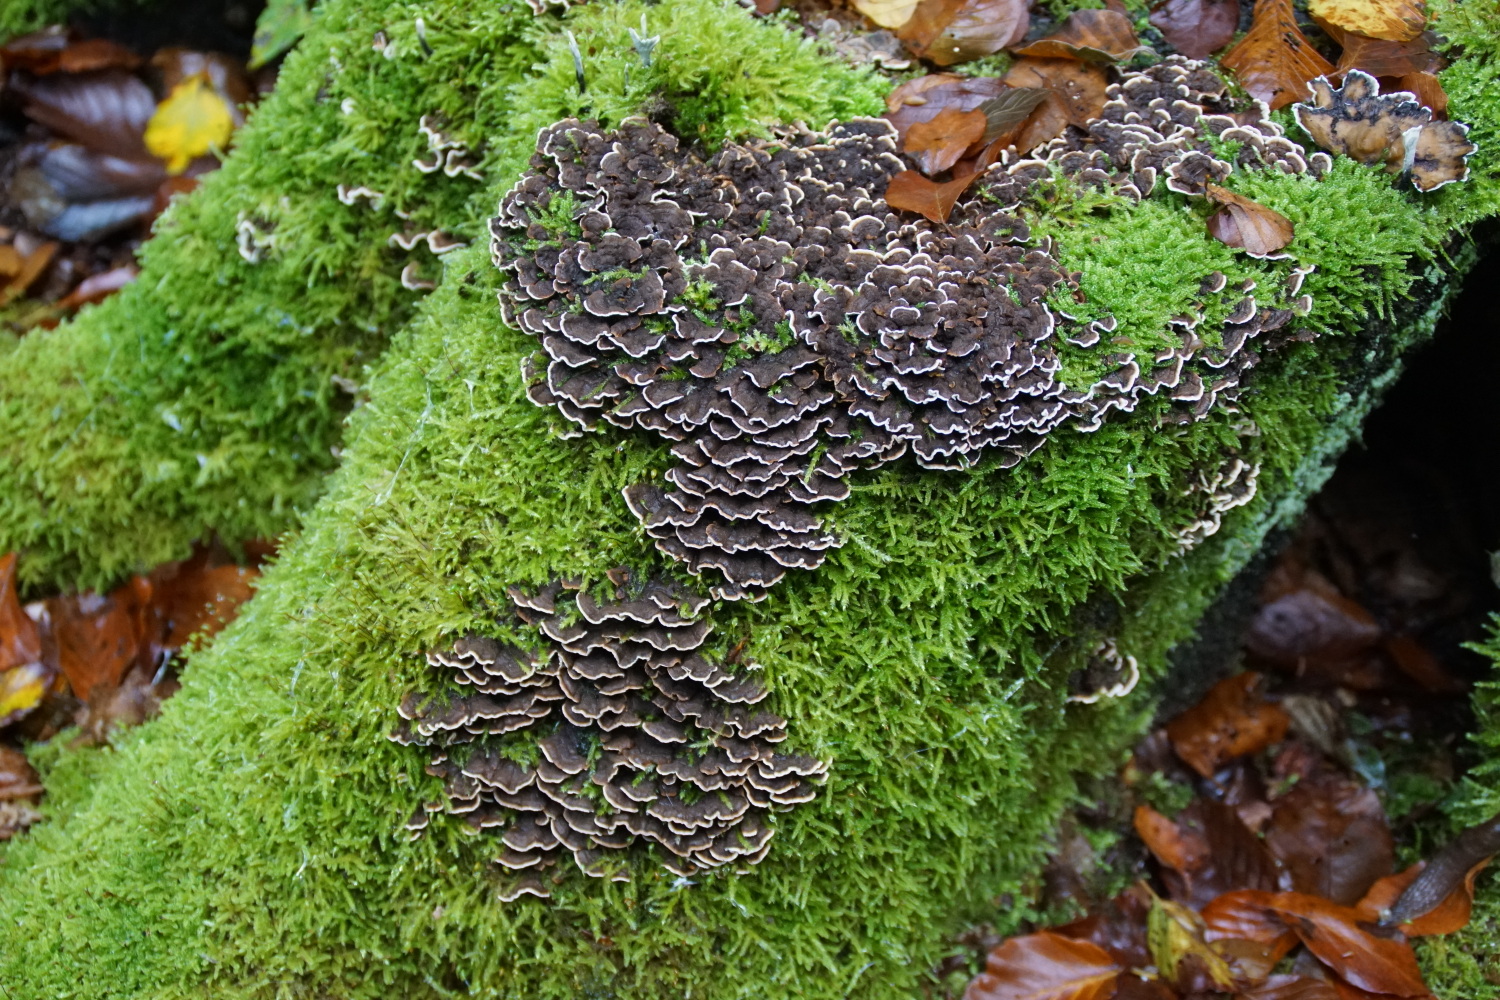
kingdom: Fungi
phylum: Basidiomycota
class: Agaricomycetes
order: Russulales
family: Hericiaceae
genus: Laxitextum
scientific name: Laxitextum bicolor
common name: tvefarvet filtskind
